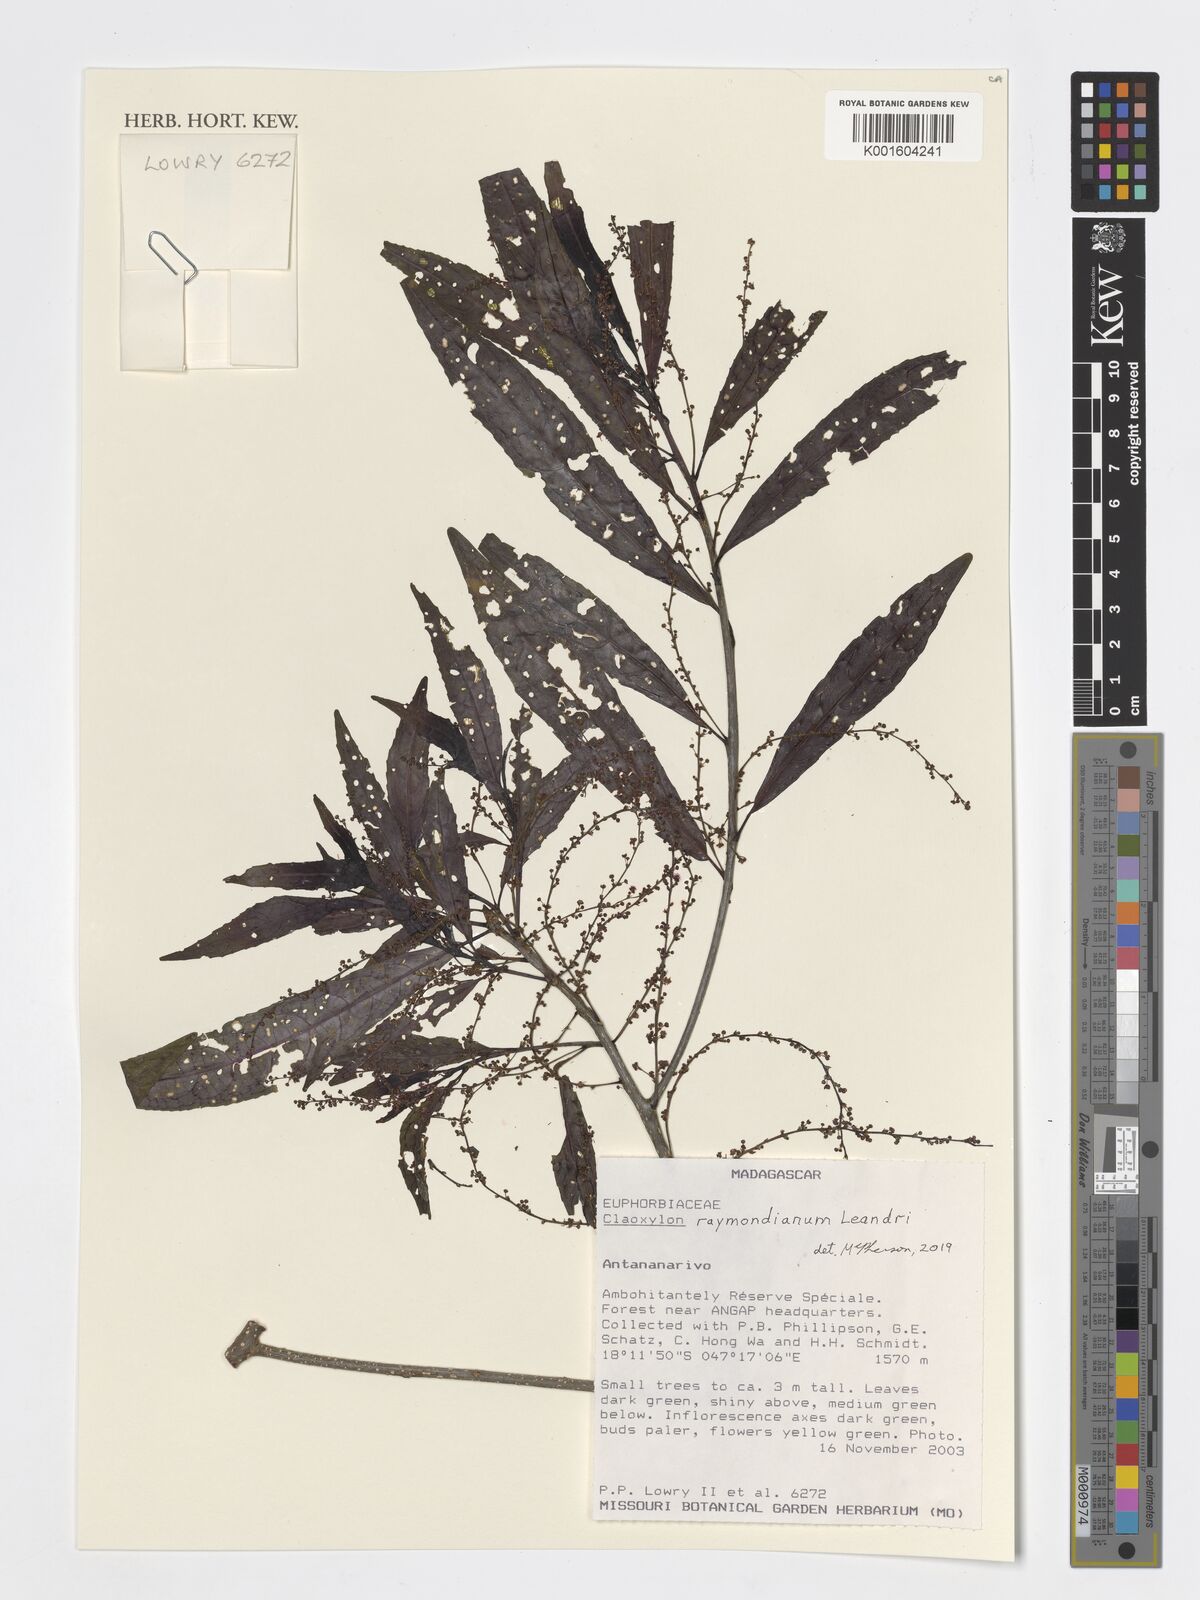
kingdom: Plantae
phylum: Tracheophyta
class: Magnoliopsida
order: Malpighiales
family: Euphorbiaceae
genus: Claoxylon
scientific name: Claoxylon raymondianum
